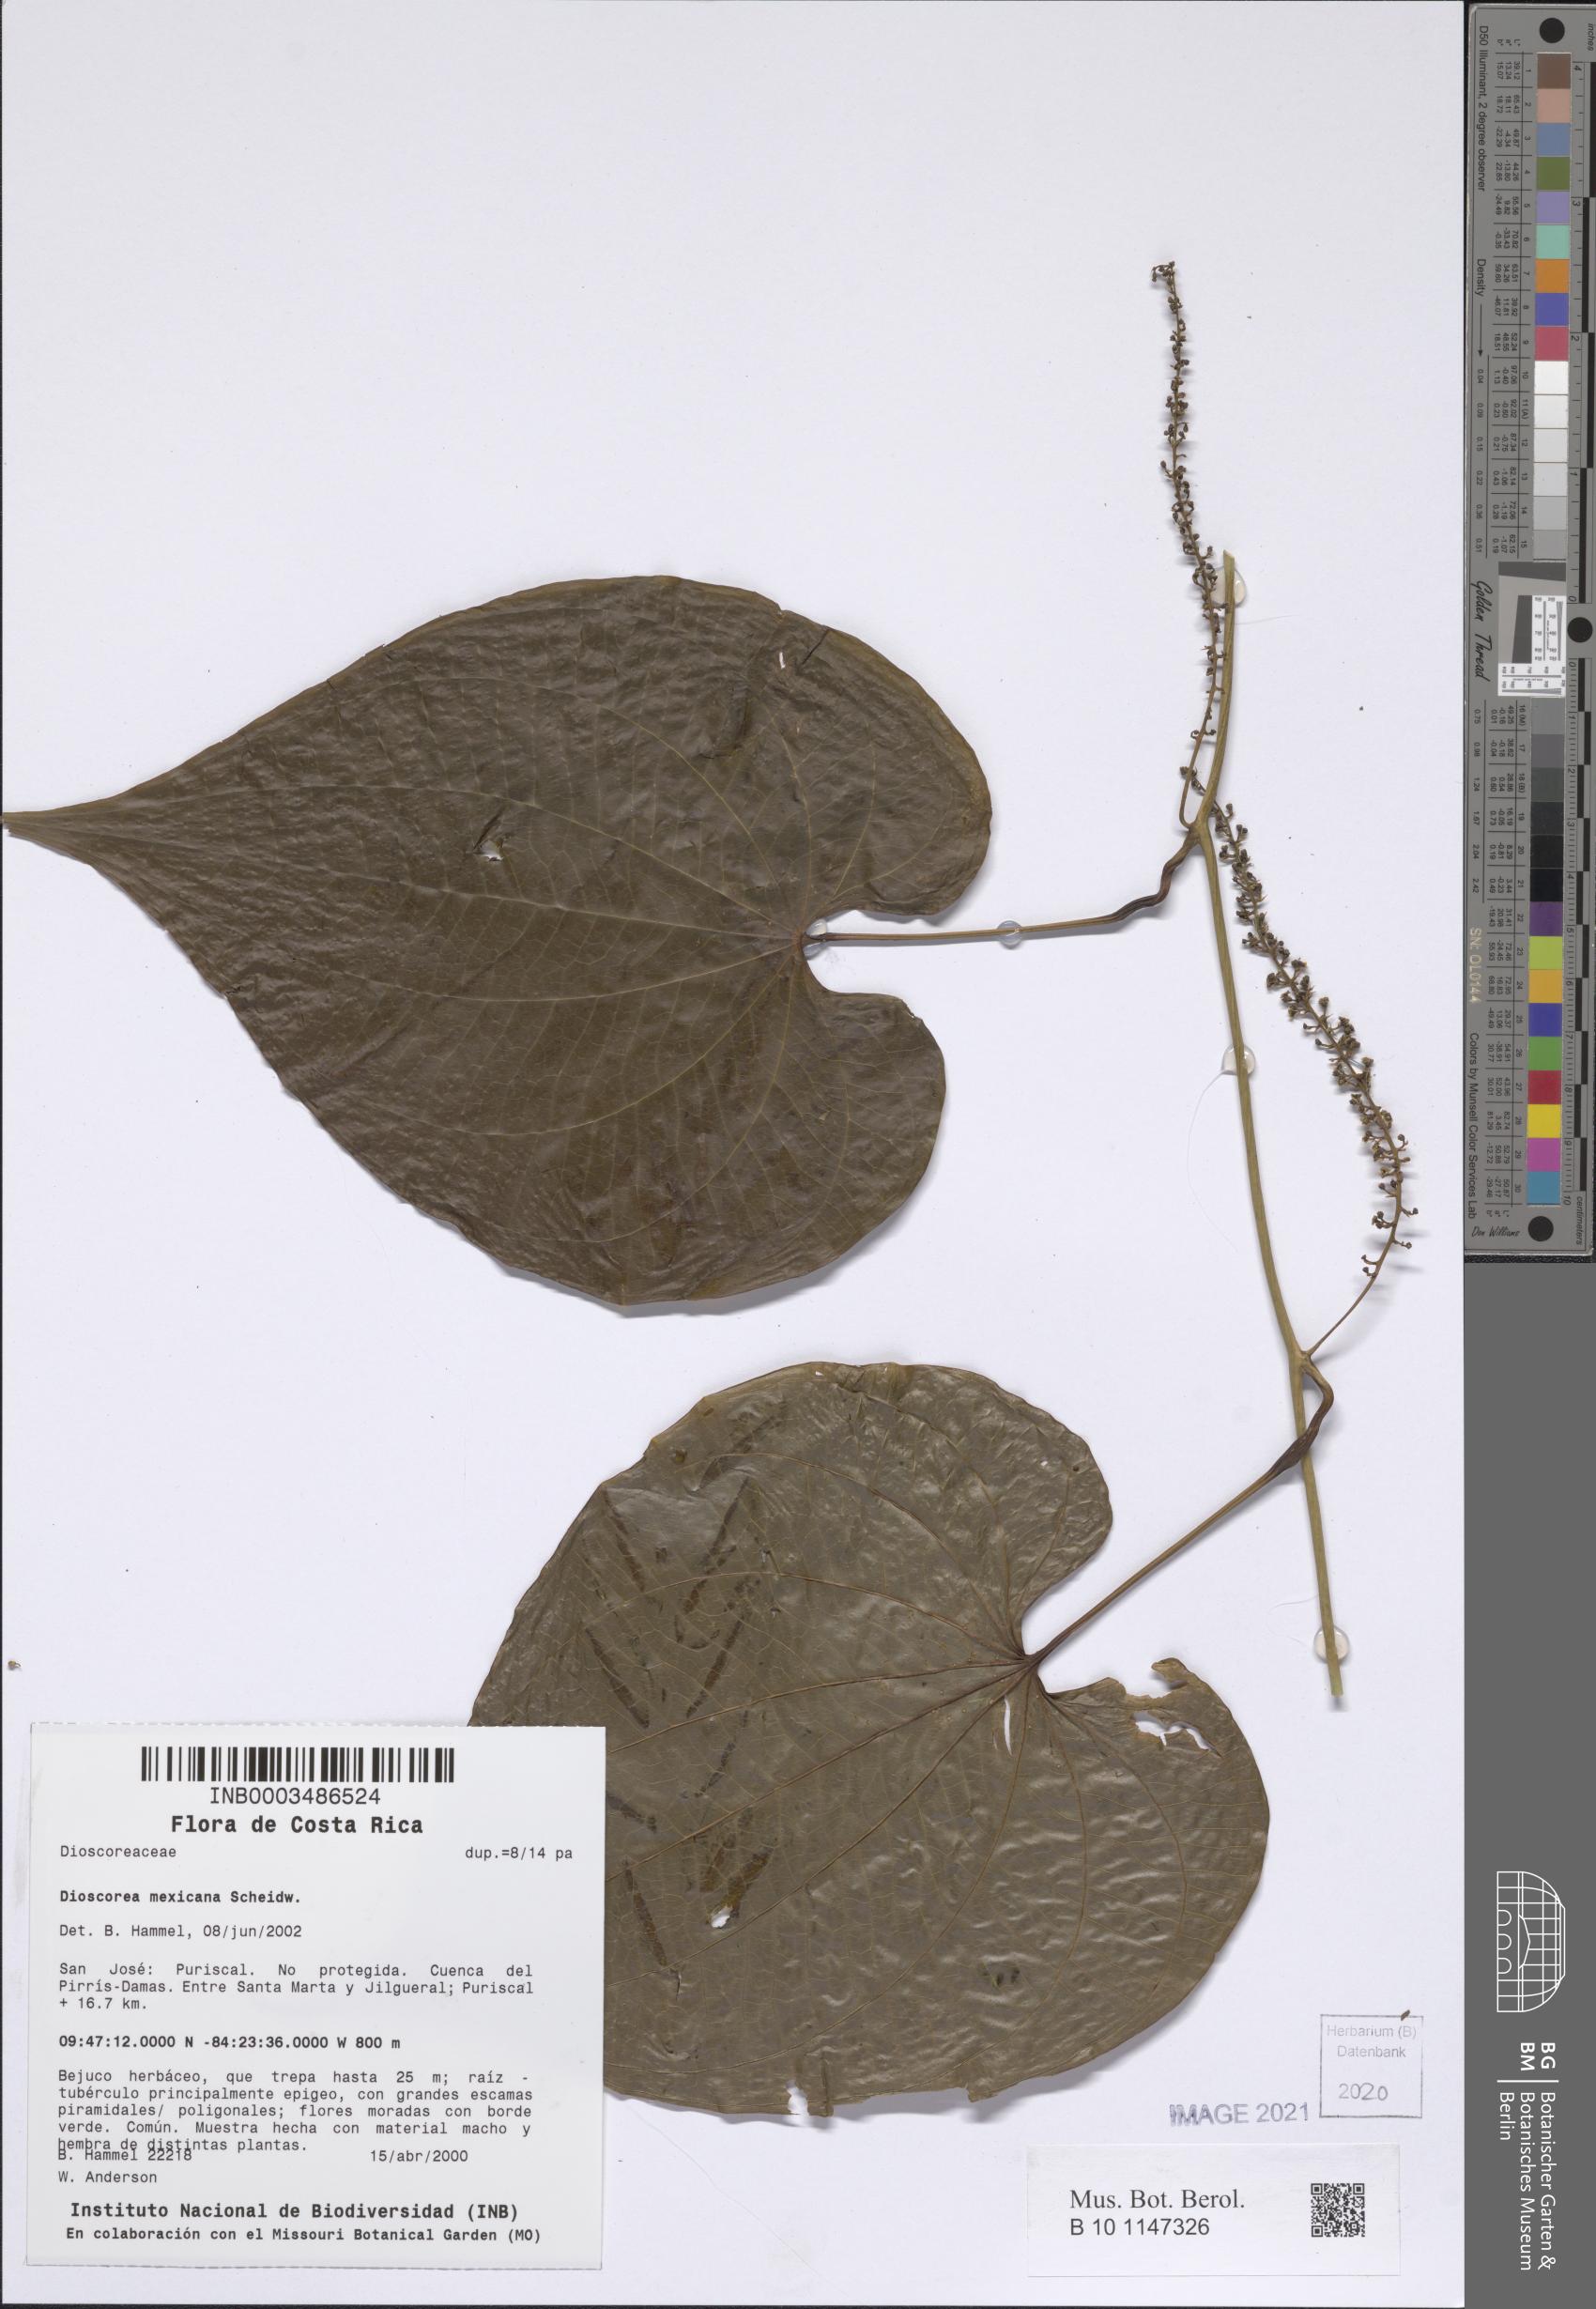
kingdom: Plantae
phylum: Tracheophyta
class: Liliopsida
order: Dioscoreales
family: Dioscoreaceae
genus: Dioscorea
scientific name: Dioscorea mexicana
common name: Mexican yam
